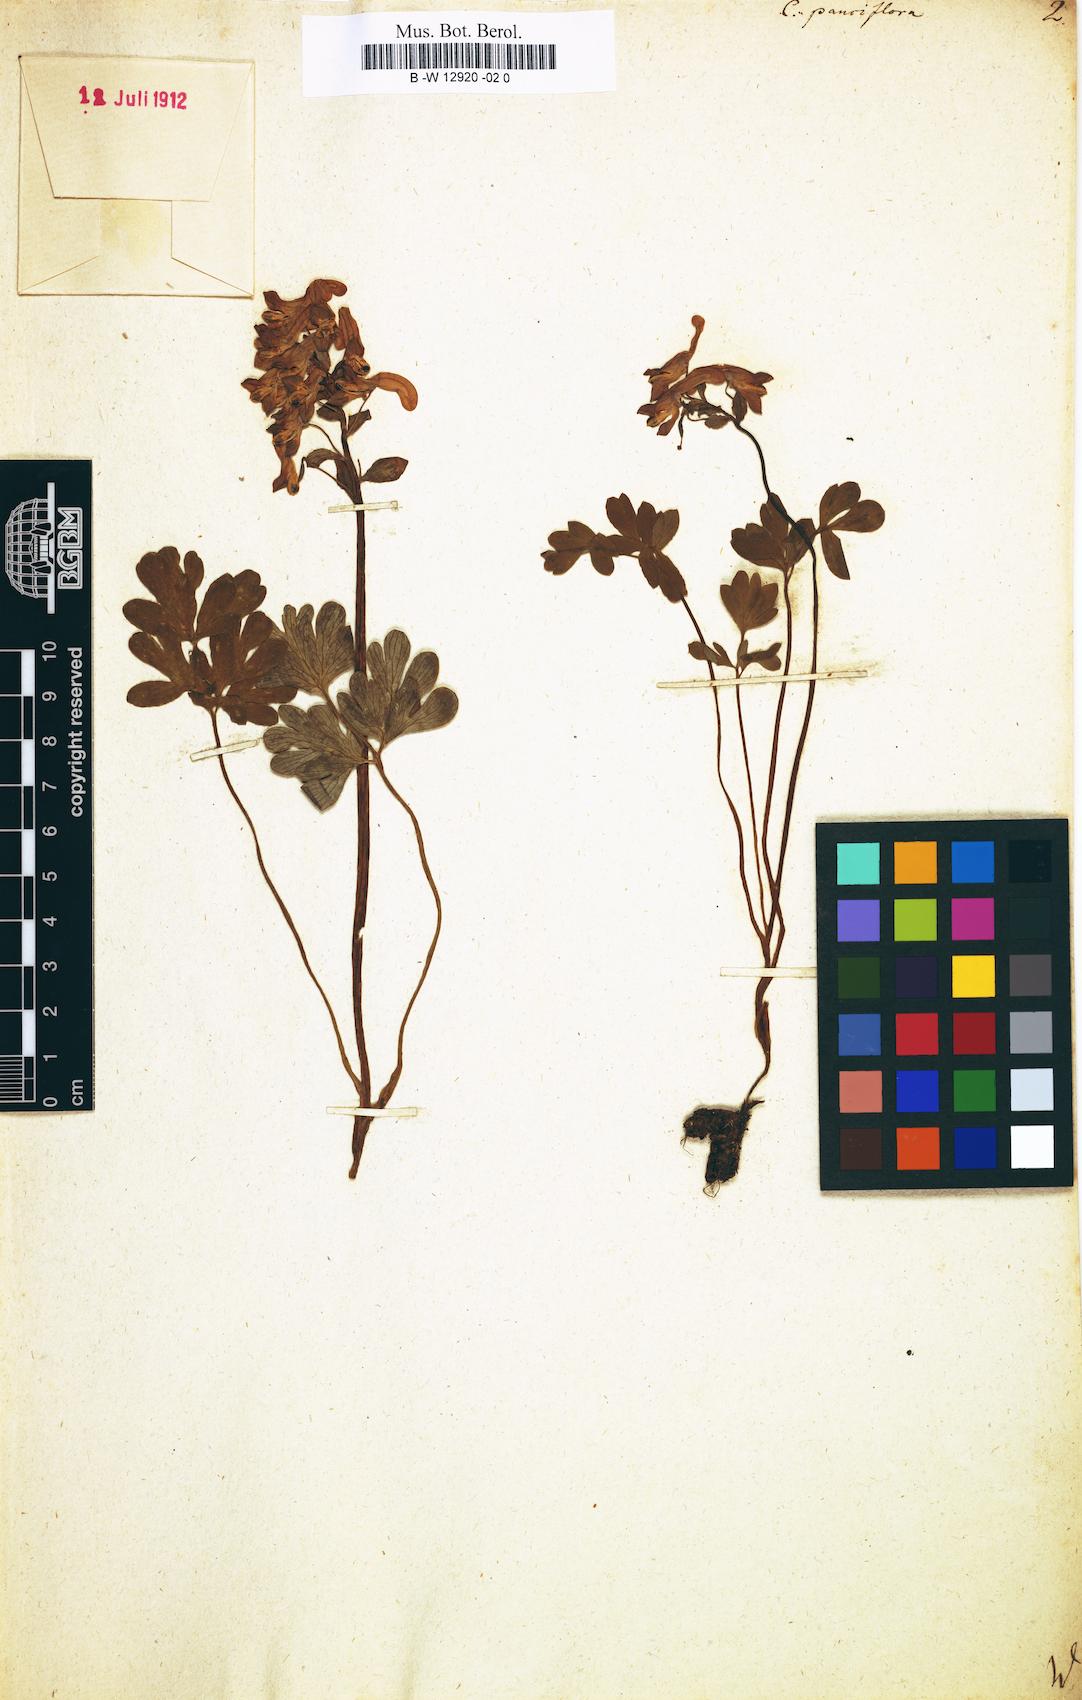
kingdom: Plantae
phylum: Tracheophyta
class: Magnoliopsida
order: Ranunculales
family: Papaveraceae
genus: Corydalis
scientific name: Corydalis pauciflora
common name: Blue corydalis
